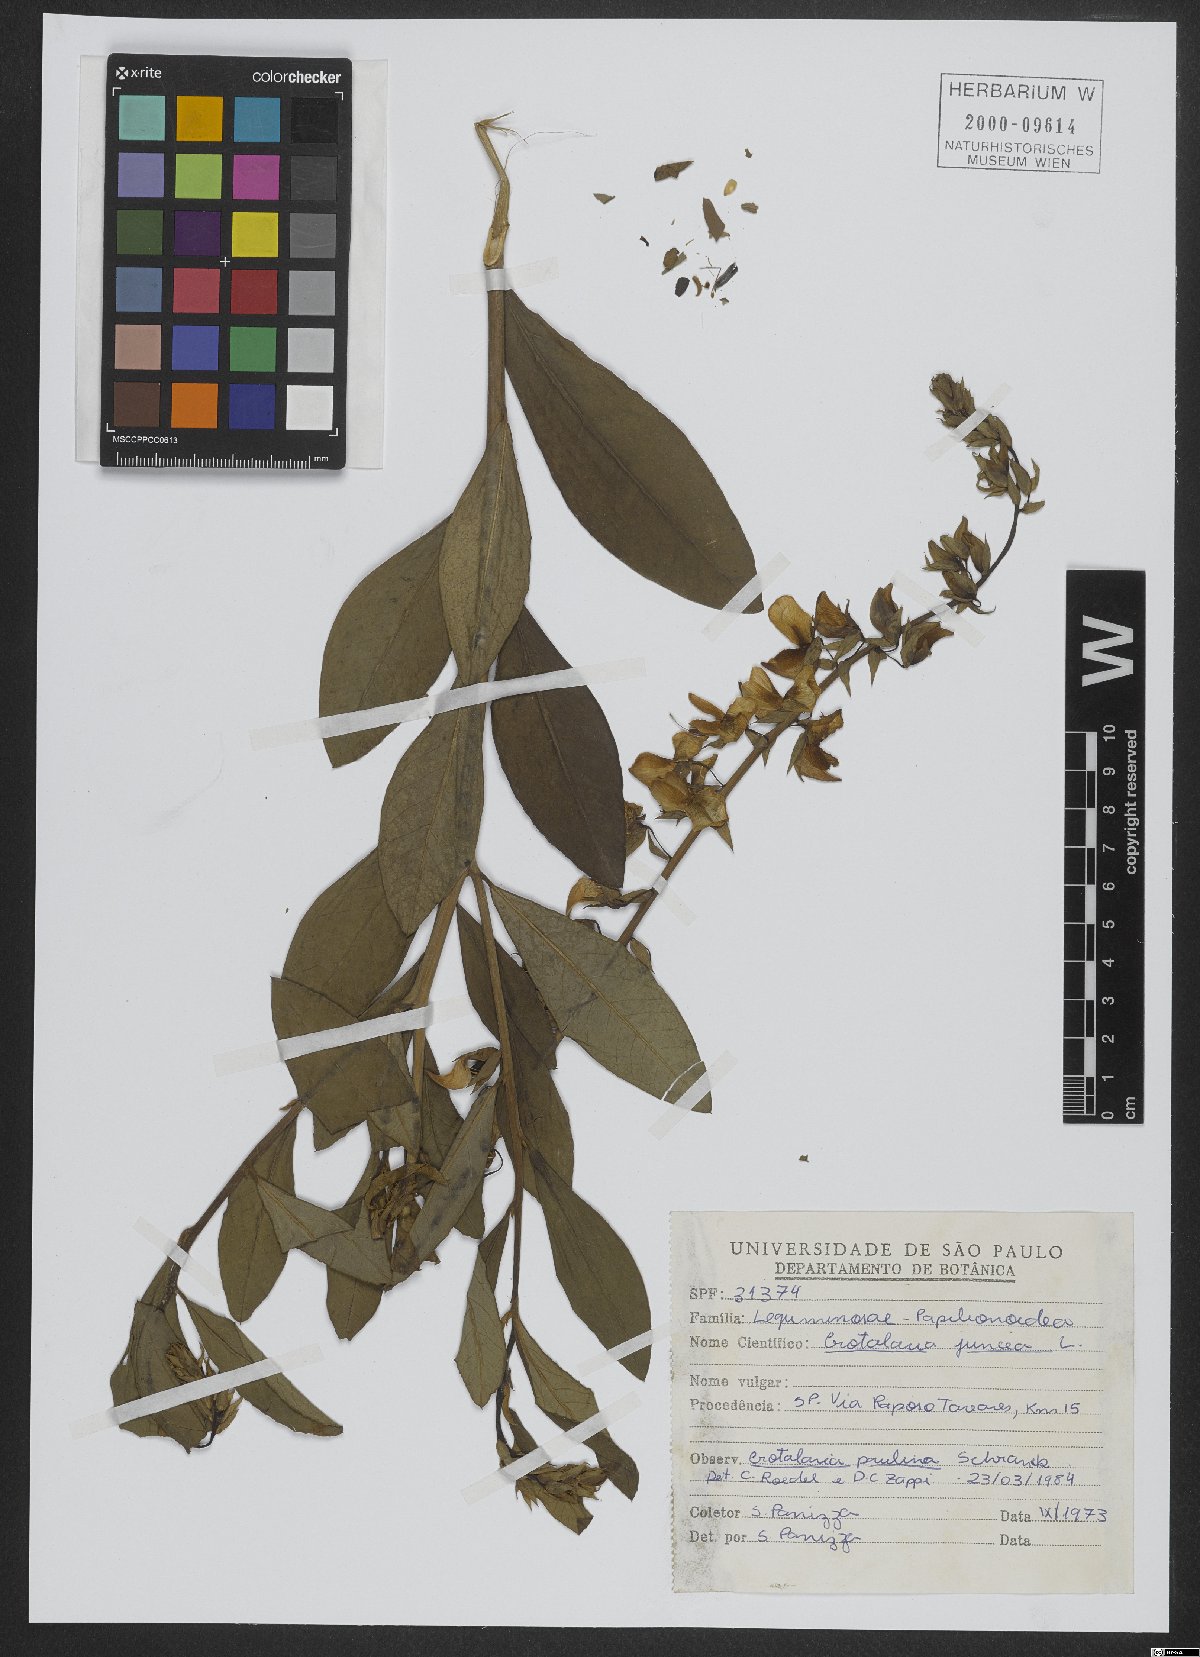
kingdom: Plantae
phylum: Tracheophyta
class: Magnoliopsida
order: Fabales
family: Fabaceae
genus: Crotalaria
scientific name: Crotalaria juncea
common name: Sunn hemp
